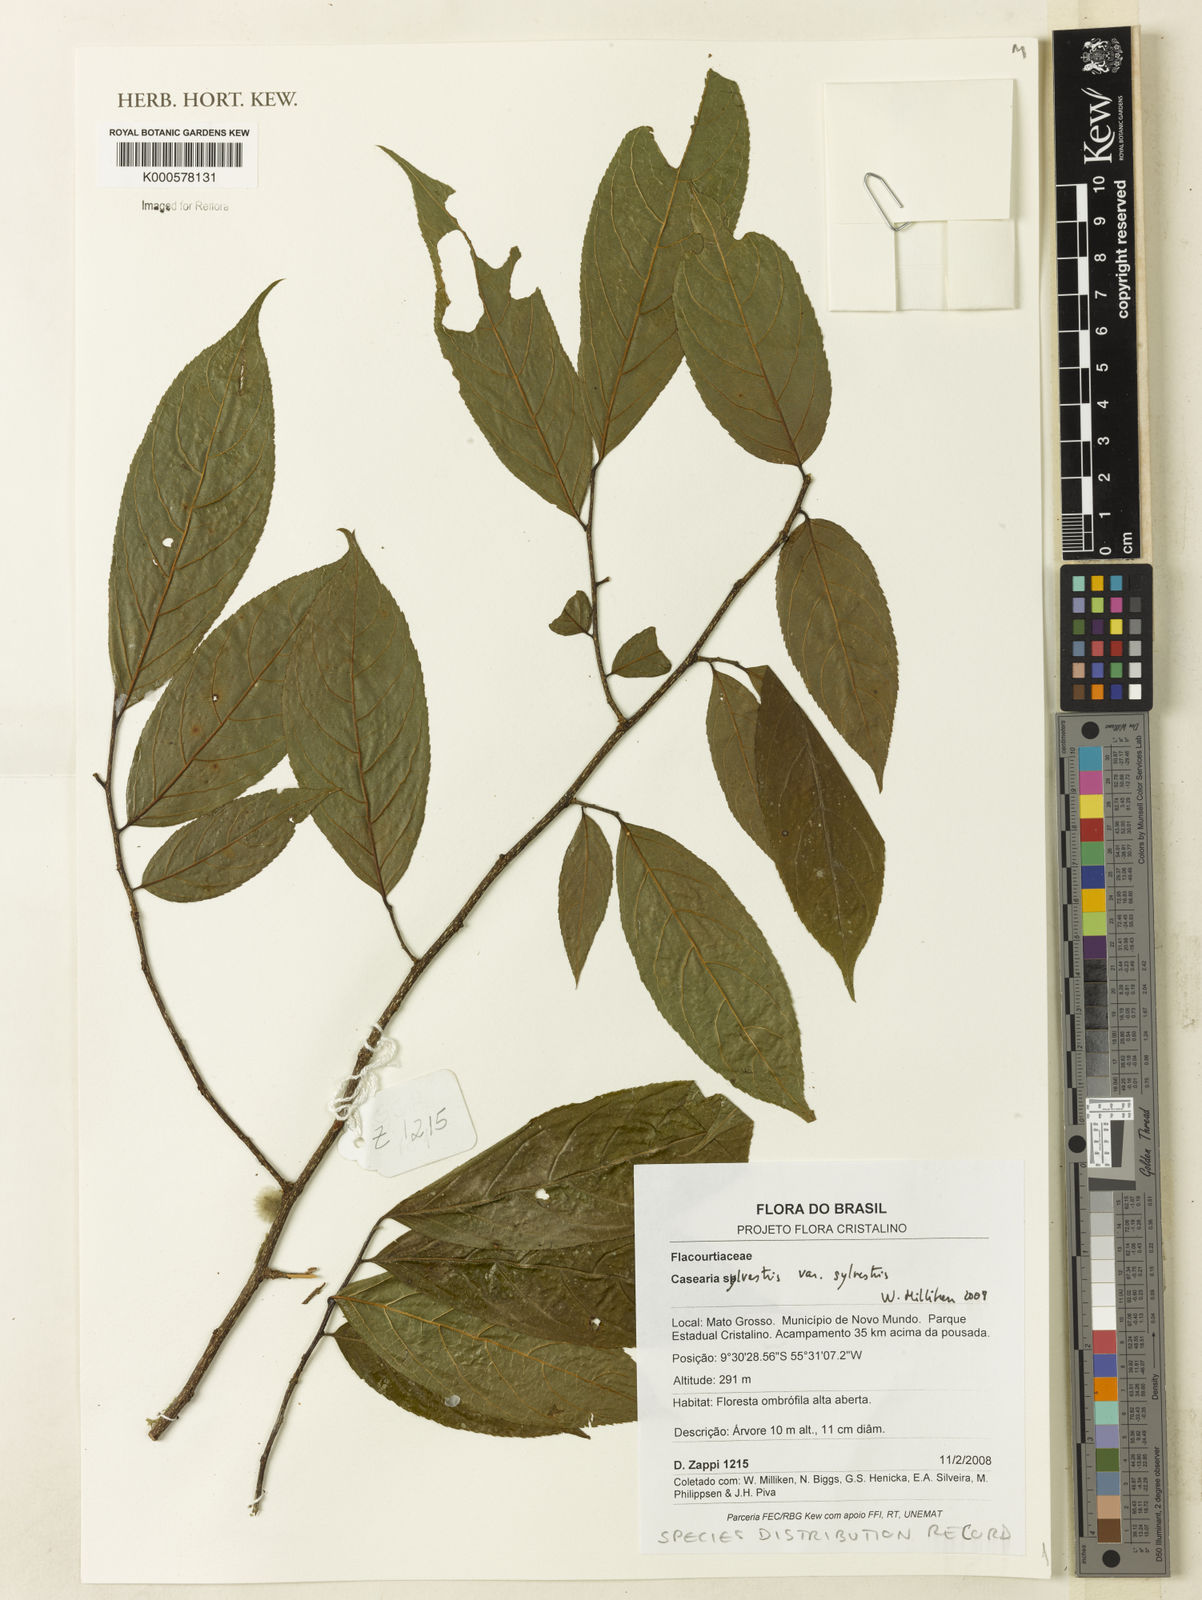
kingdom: Plantae
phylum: Tracheophyta
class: Magnoliopsida
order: Malpighiales
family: Salicaceae
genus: Casearia
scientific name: Casearia sylvestris
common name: Wild sage
